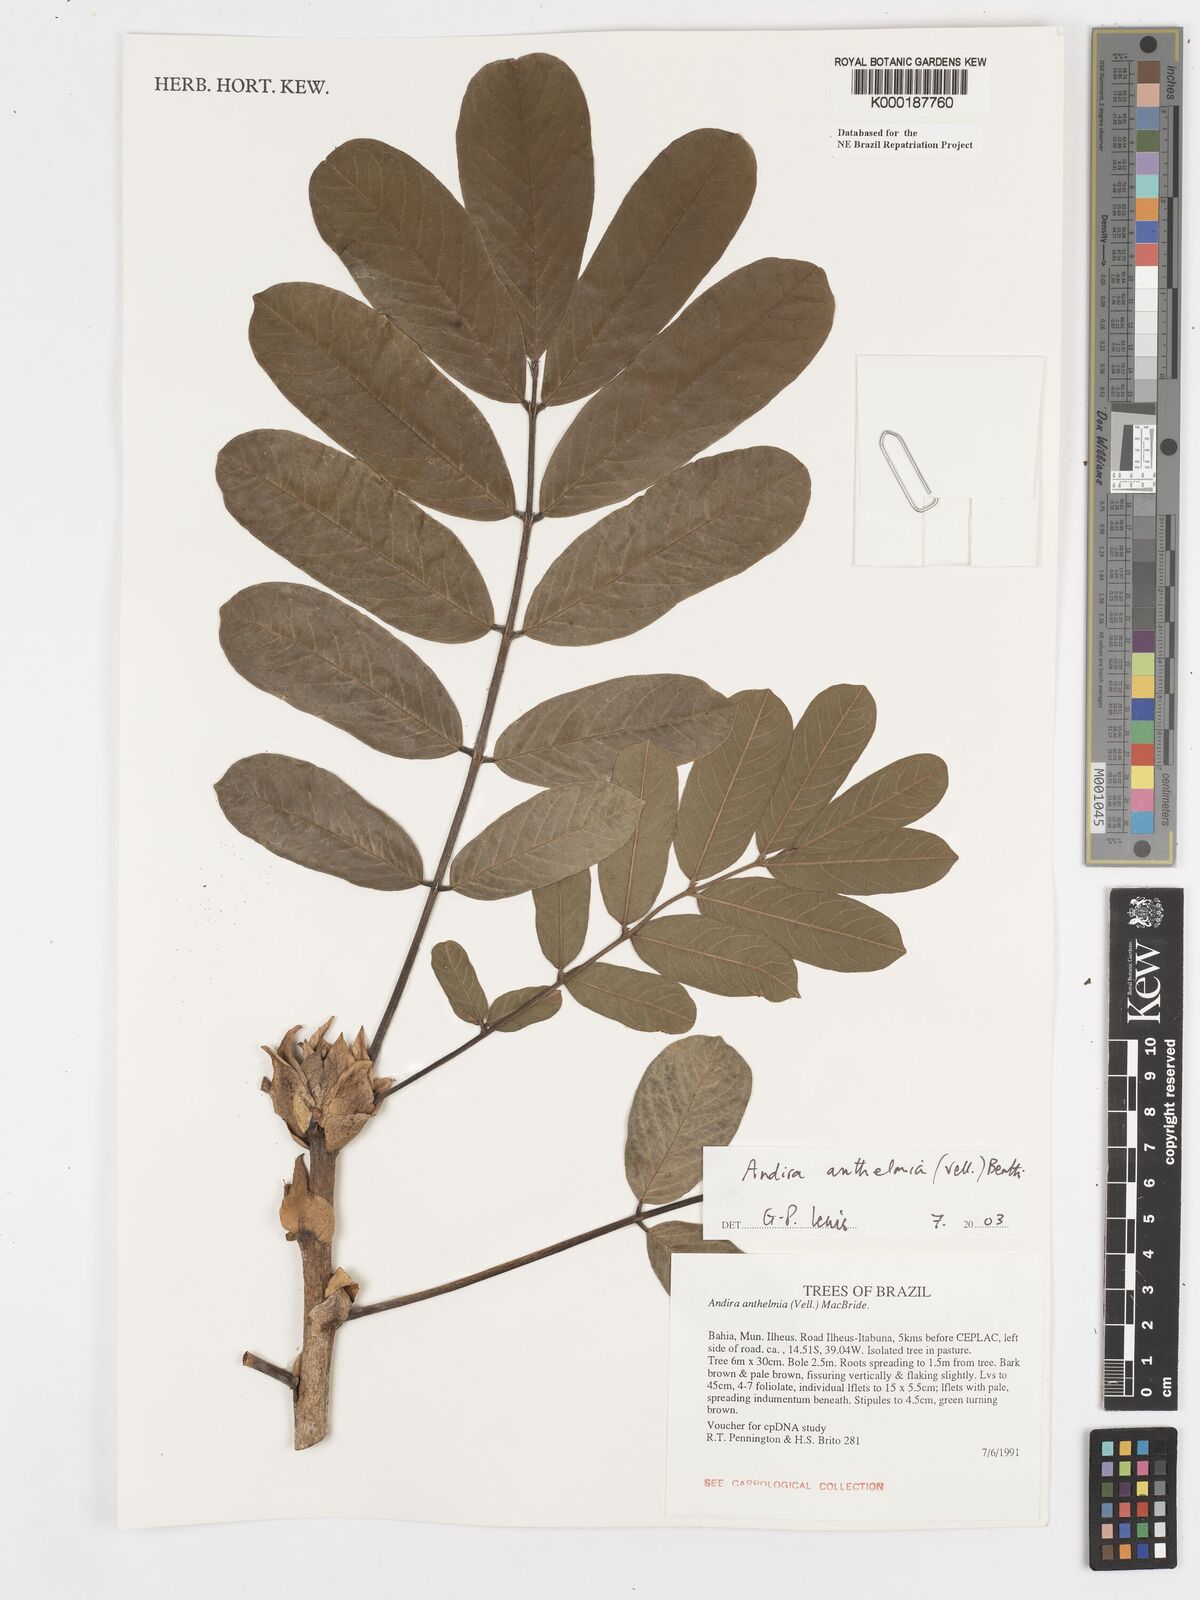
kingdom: Plantae
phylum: Tracheophyta
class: Magnoliopsida
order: Fabales
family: Fabaceae
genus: Andira
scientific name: Andira
